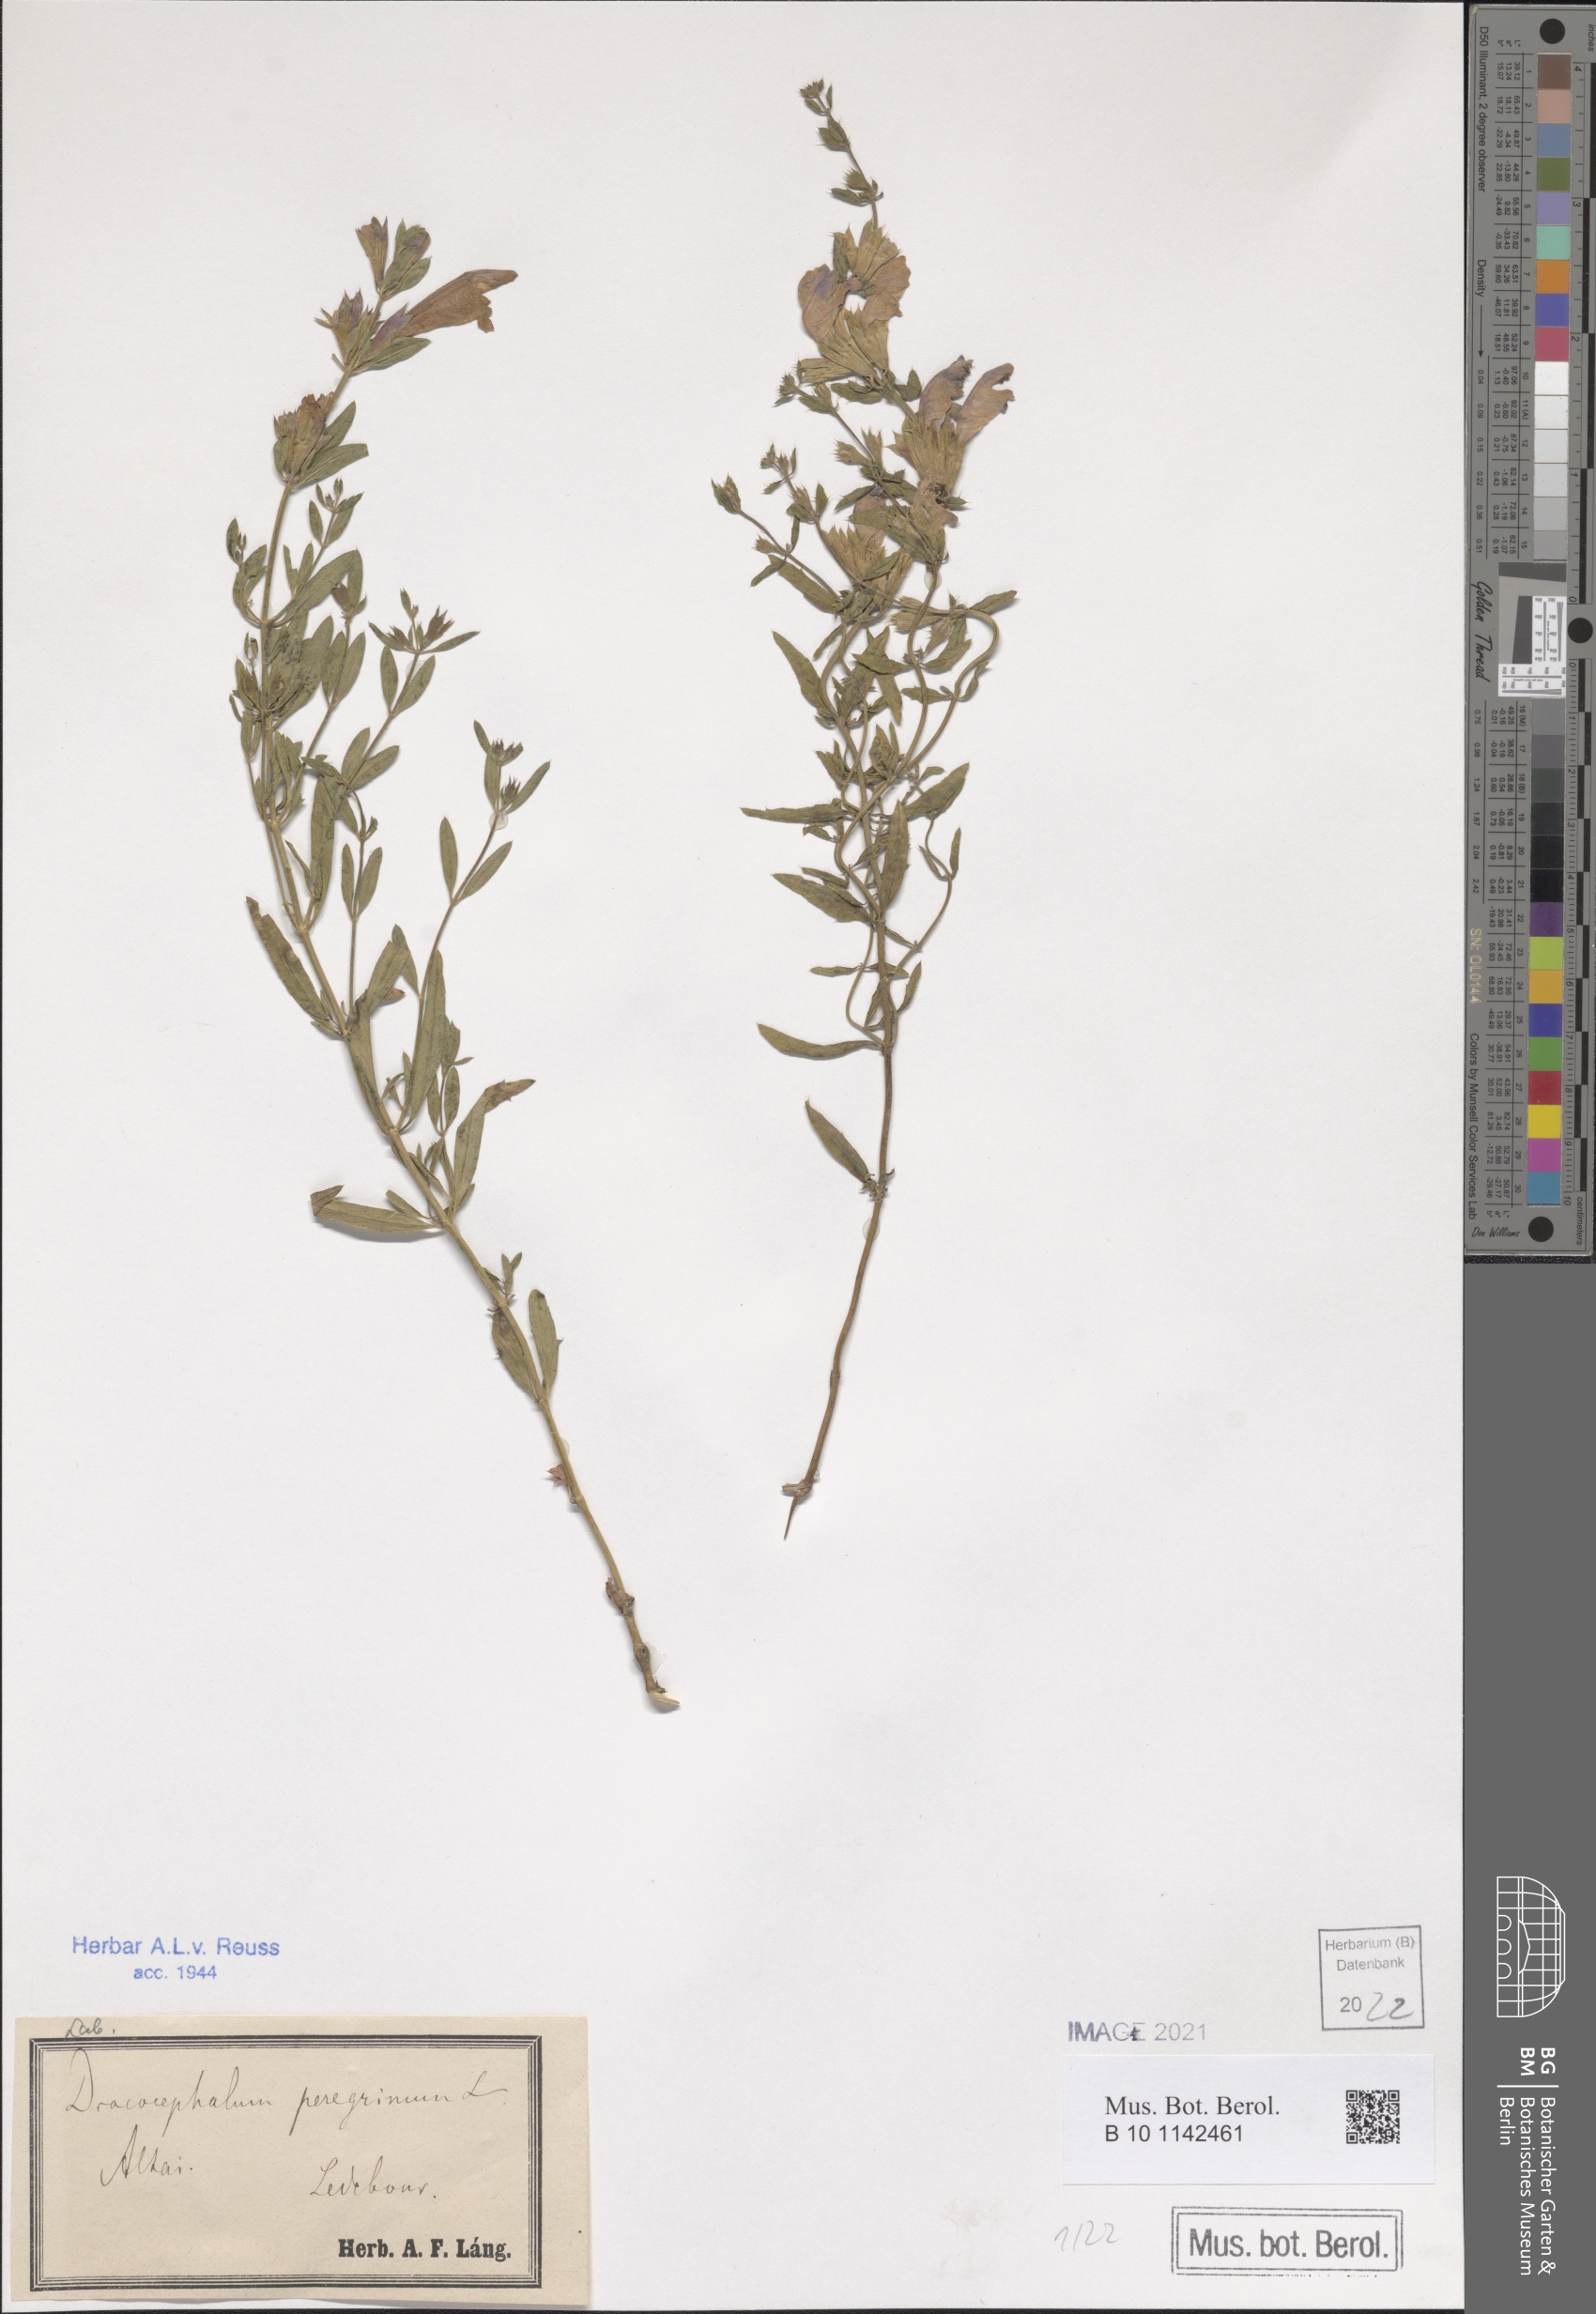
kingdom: Plantae
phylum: Tracheophyta
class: Magnoliopsida
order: Lamiales
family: Lamiaceae
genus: Dracocephalum
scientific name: Dracocephalum peregrinum
